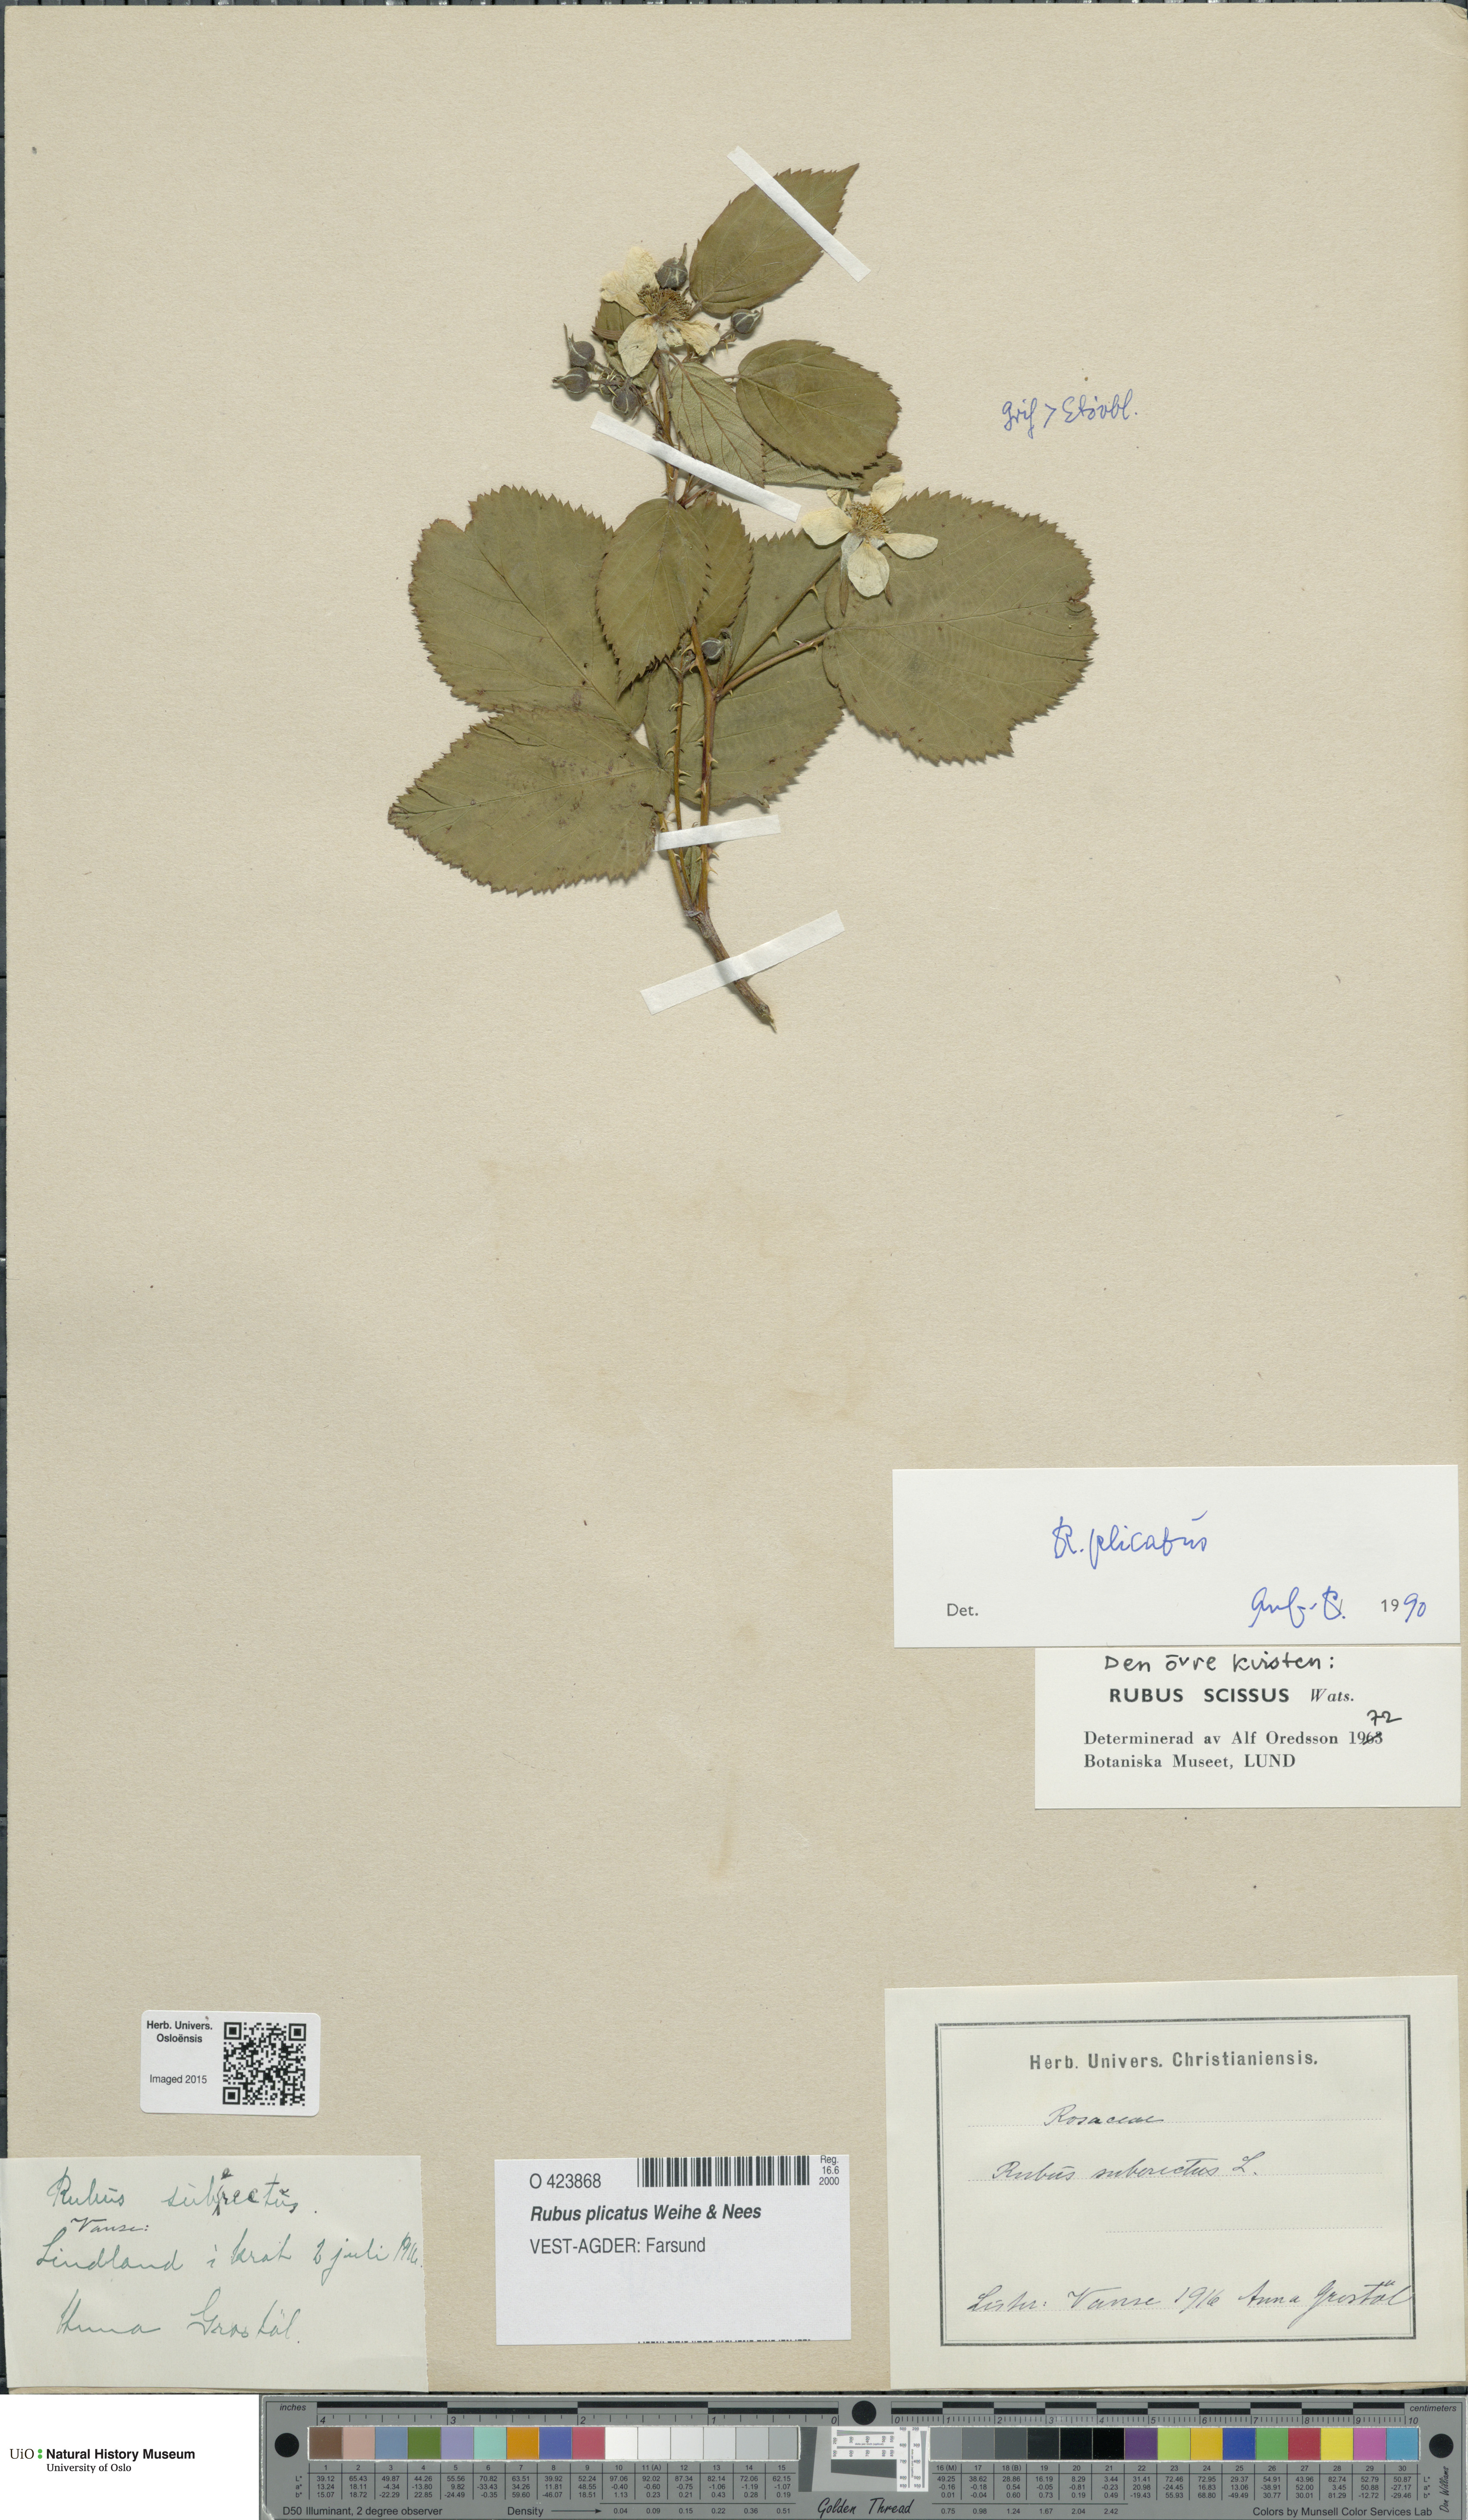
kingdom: Plantae
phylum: Tracheophyta
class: Magnoliopsida
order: Rosales
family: Rosaceae
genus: Rubus
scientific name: Rubus fruticosus
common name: Blackberry, bramble
